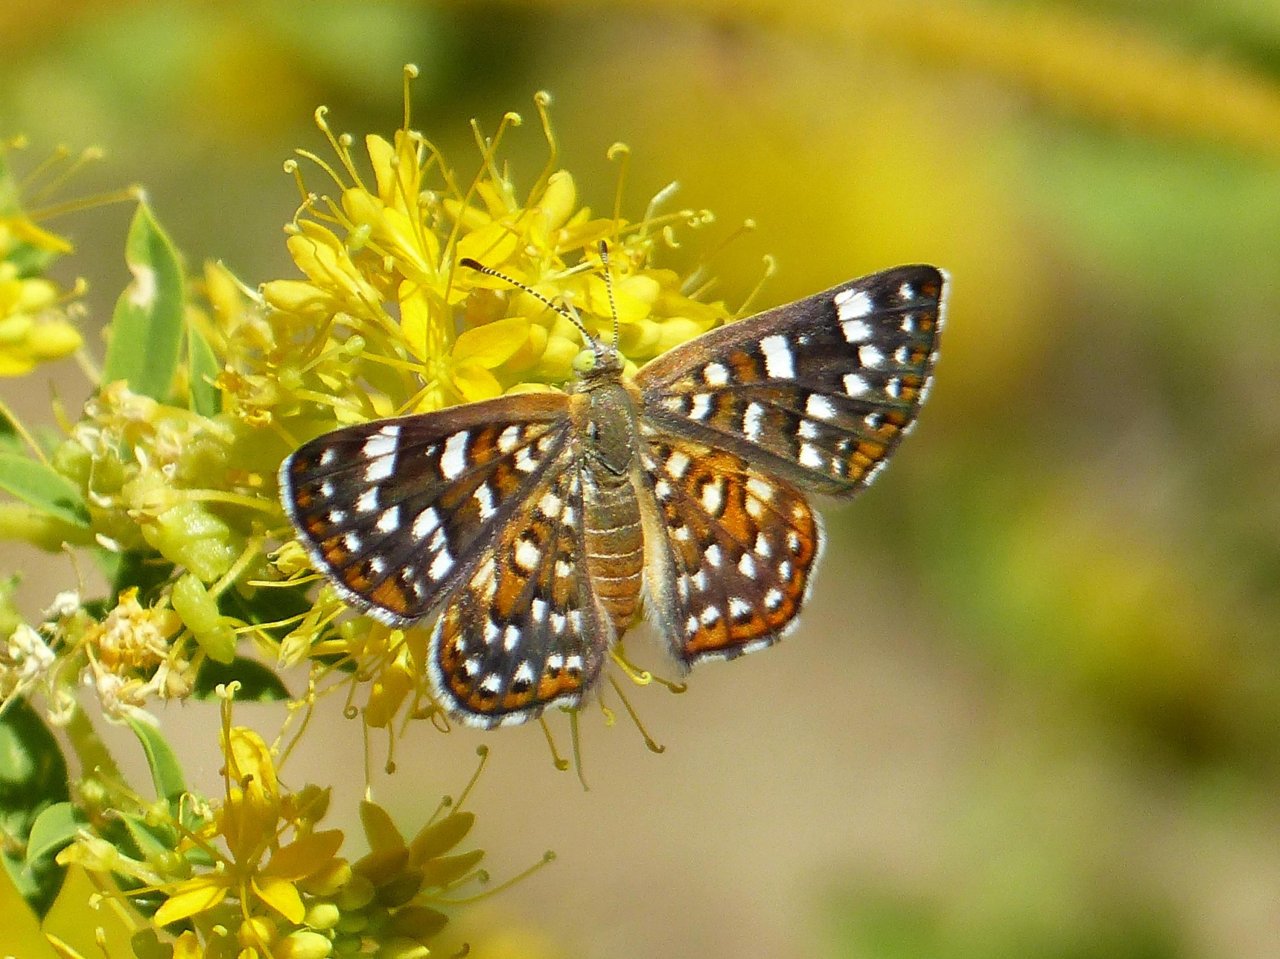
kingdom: Animalia
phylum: Arthropoda
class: Insecta
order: Lepidoptera
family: Riodinidae
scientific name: Riodinidae
